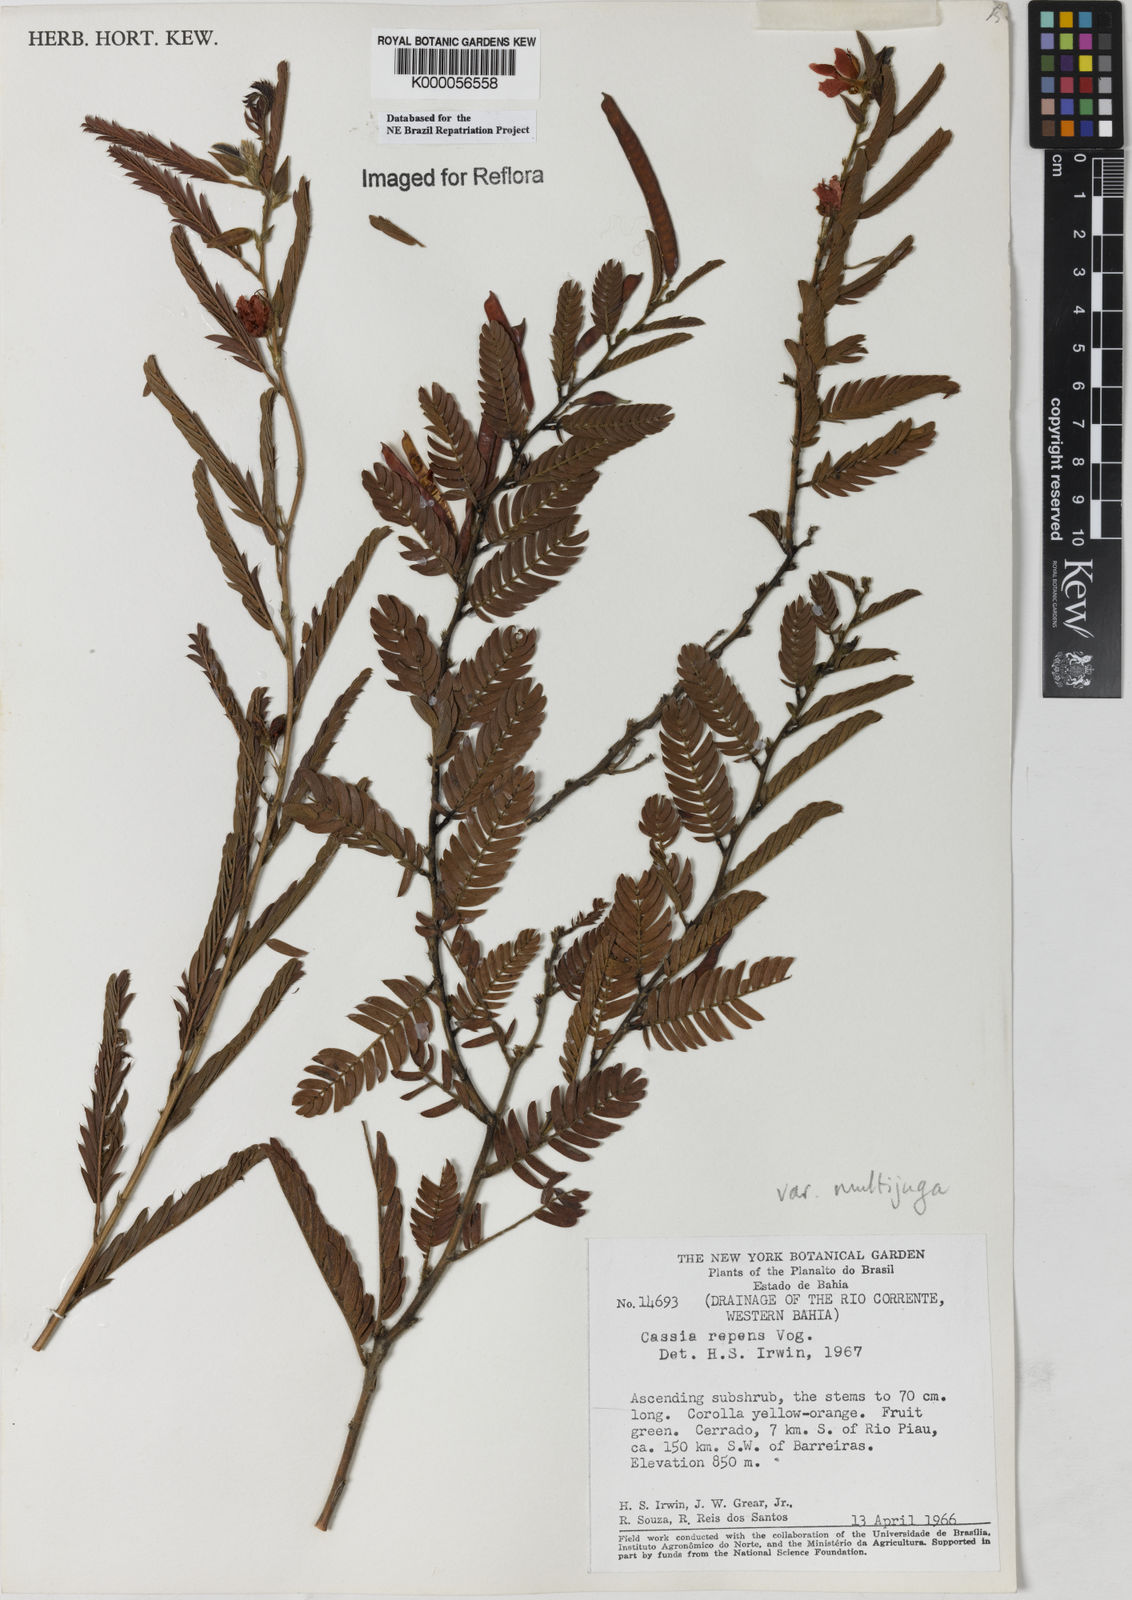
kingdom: Plantae
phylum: Tracheophyta
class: Magnoliopsida
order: Fabales
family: Fabaceae
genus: Chamaecrista
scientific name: Chamaecrista repens
